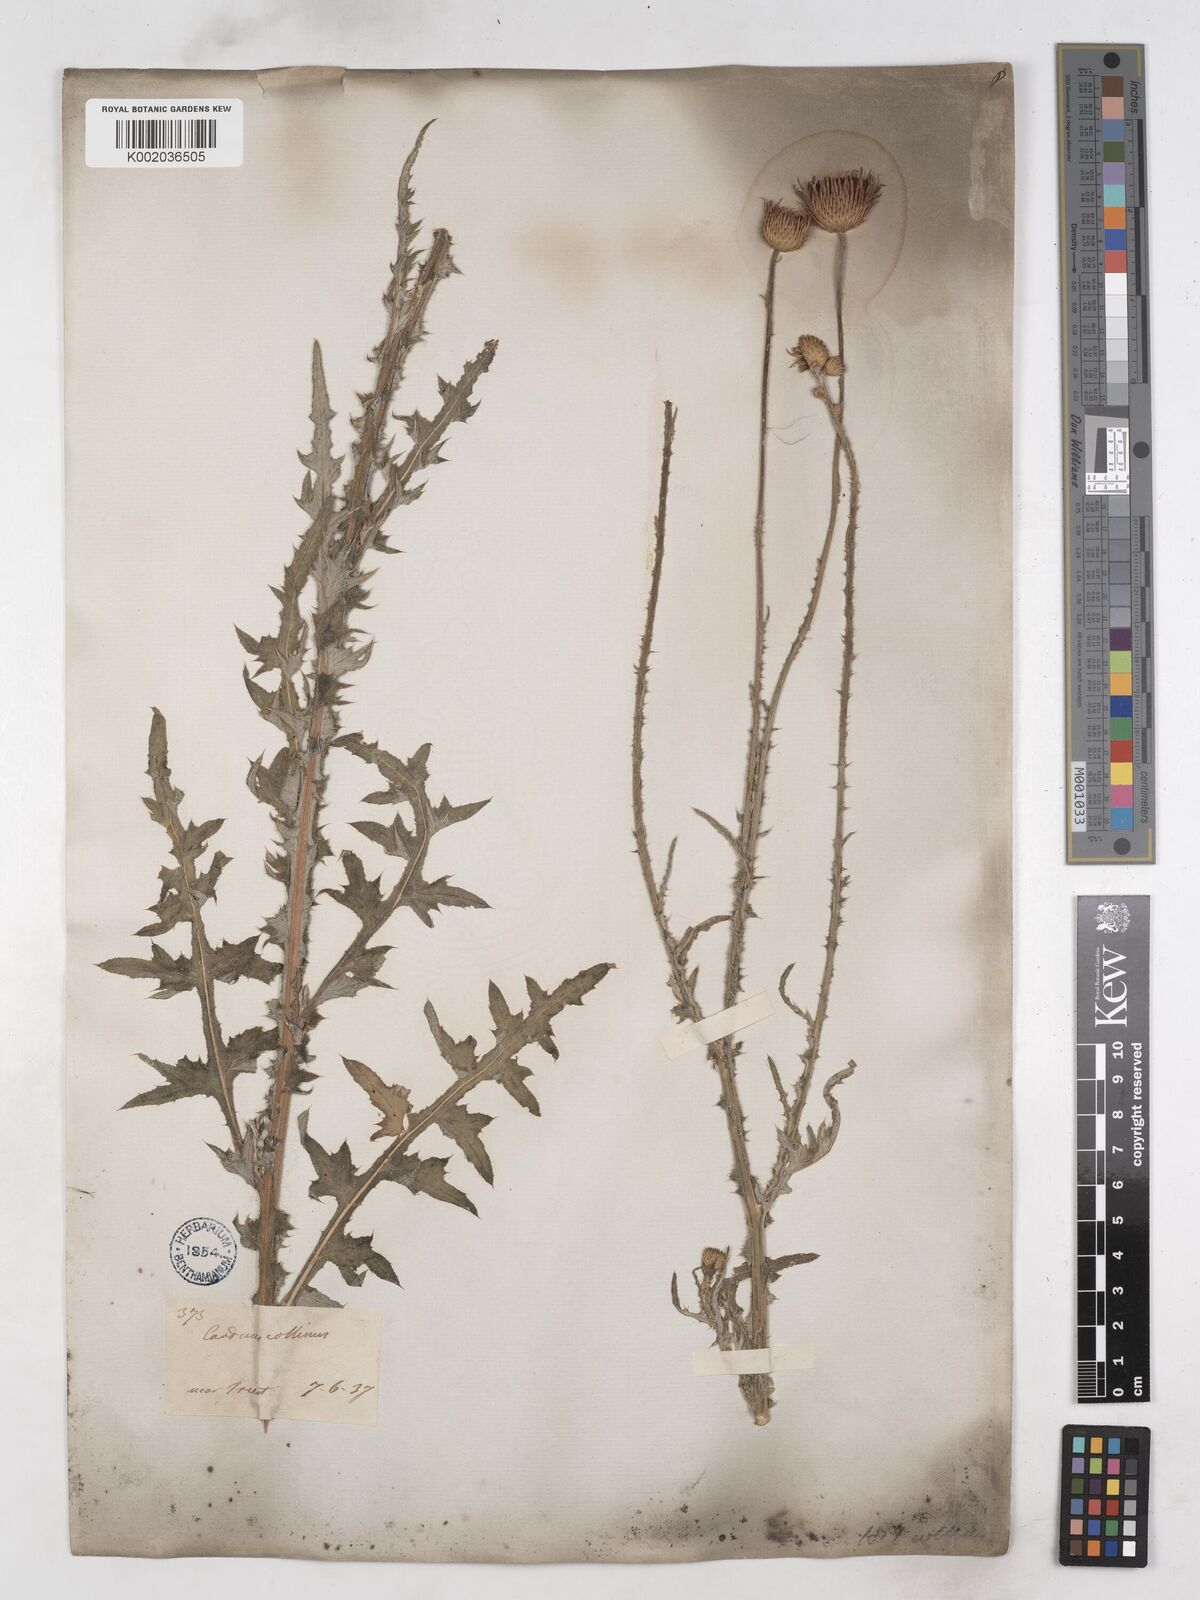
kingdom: Plantae
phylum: Tracheophyta
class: Magnoliopsida
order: Asterales
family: Asteraceae
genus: Carduus
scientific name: Carduus
